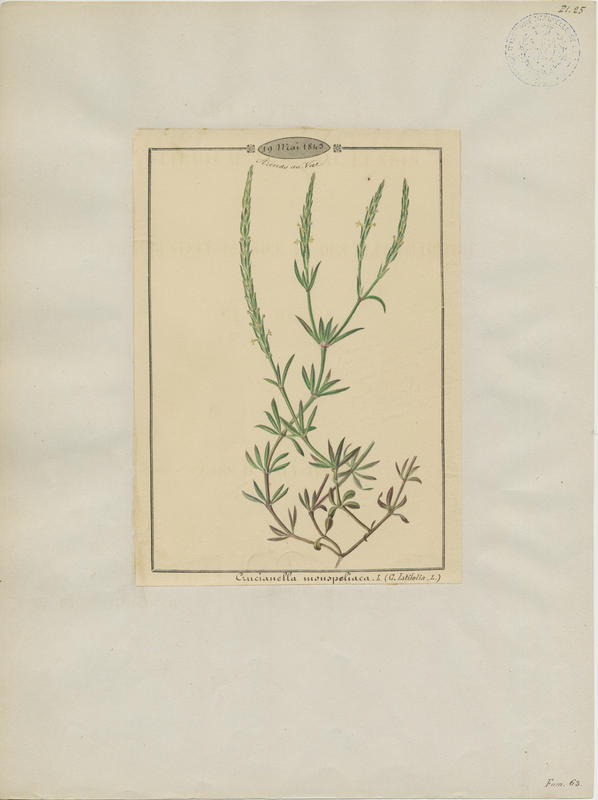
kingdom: Plantae
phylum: Tracheophyta
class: Magnoliopsida
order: Gentianales
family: Rubiaceae
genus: Crucianella
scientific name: Crucianella latifolia
